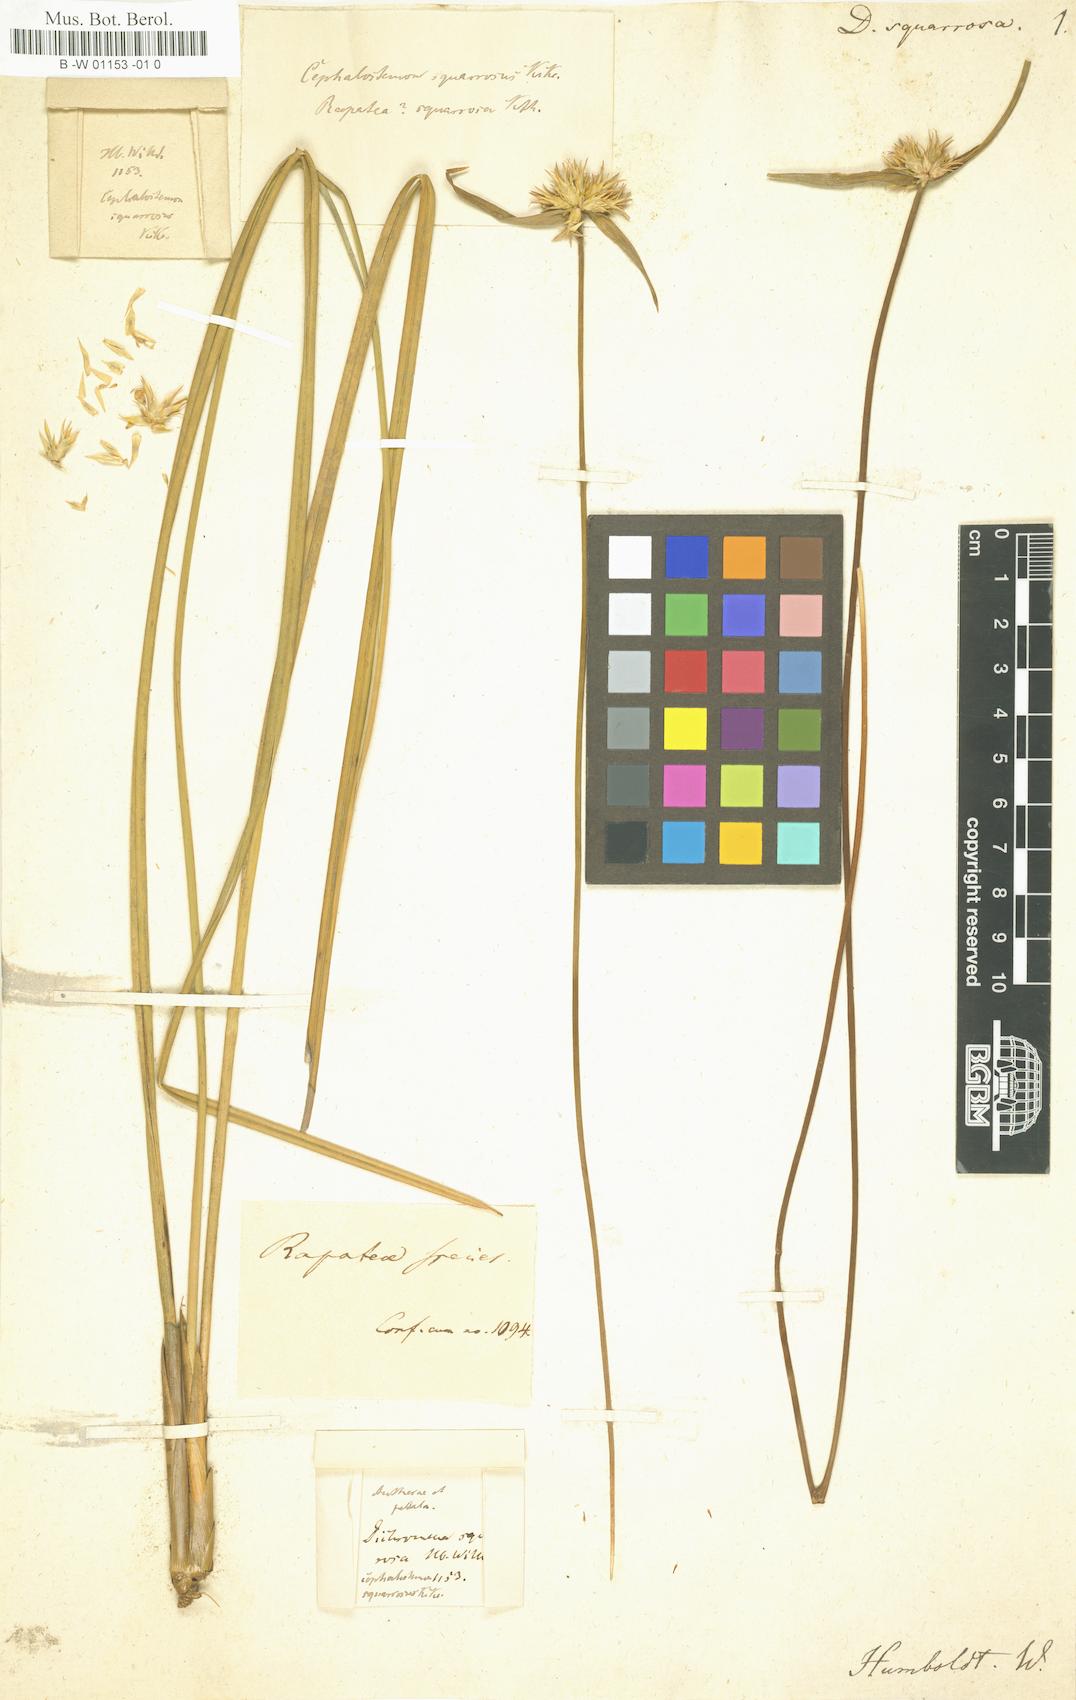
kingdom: Plantae
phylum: Tracheophyta
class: Liliopsida
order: Poales
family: Rapateaceae
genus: Duckea
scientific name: Duckea squarrosa
